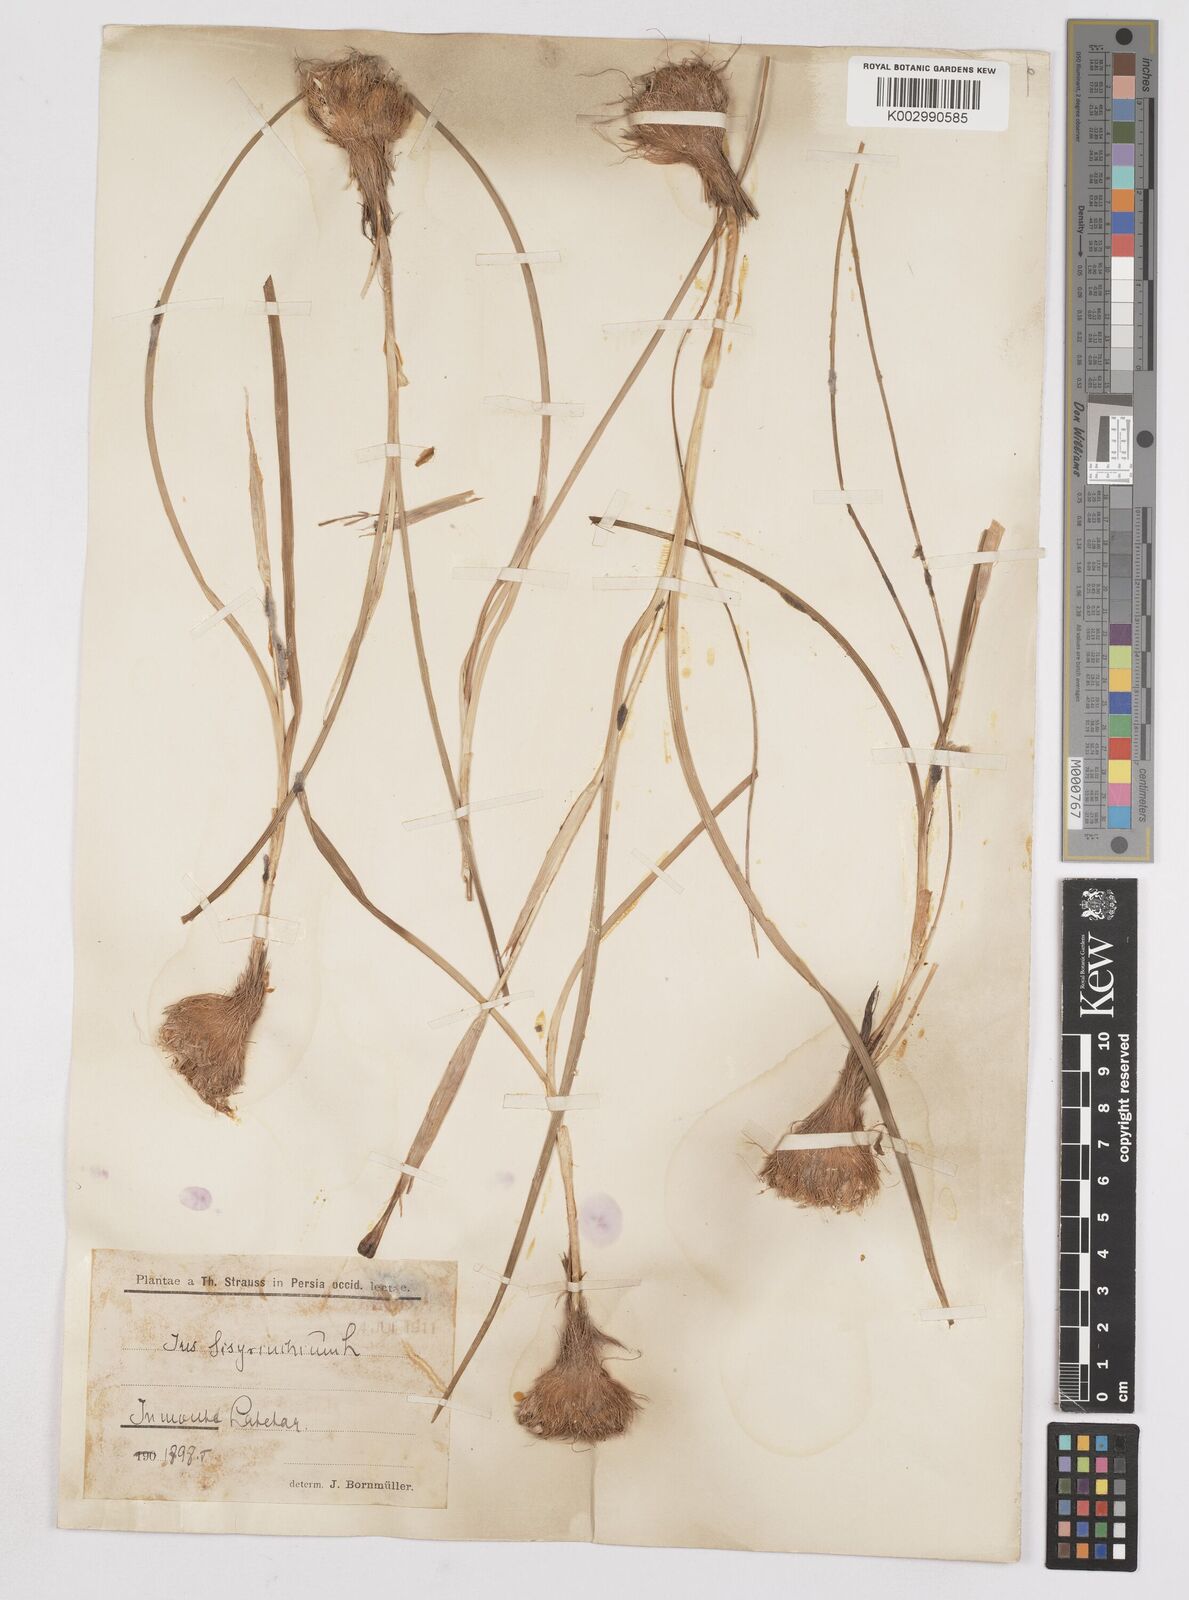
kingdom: Plantae
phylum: Tracheophyta
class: Liliopsida
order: Asparagales
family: Iridaceae
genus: Moraea
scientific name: Moraea sisyrinchium
